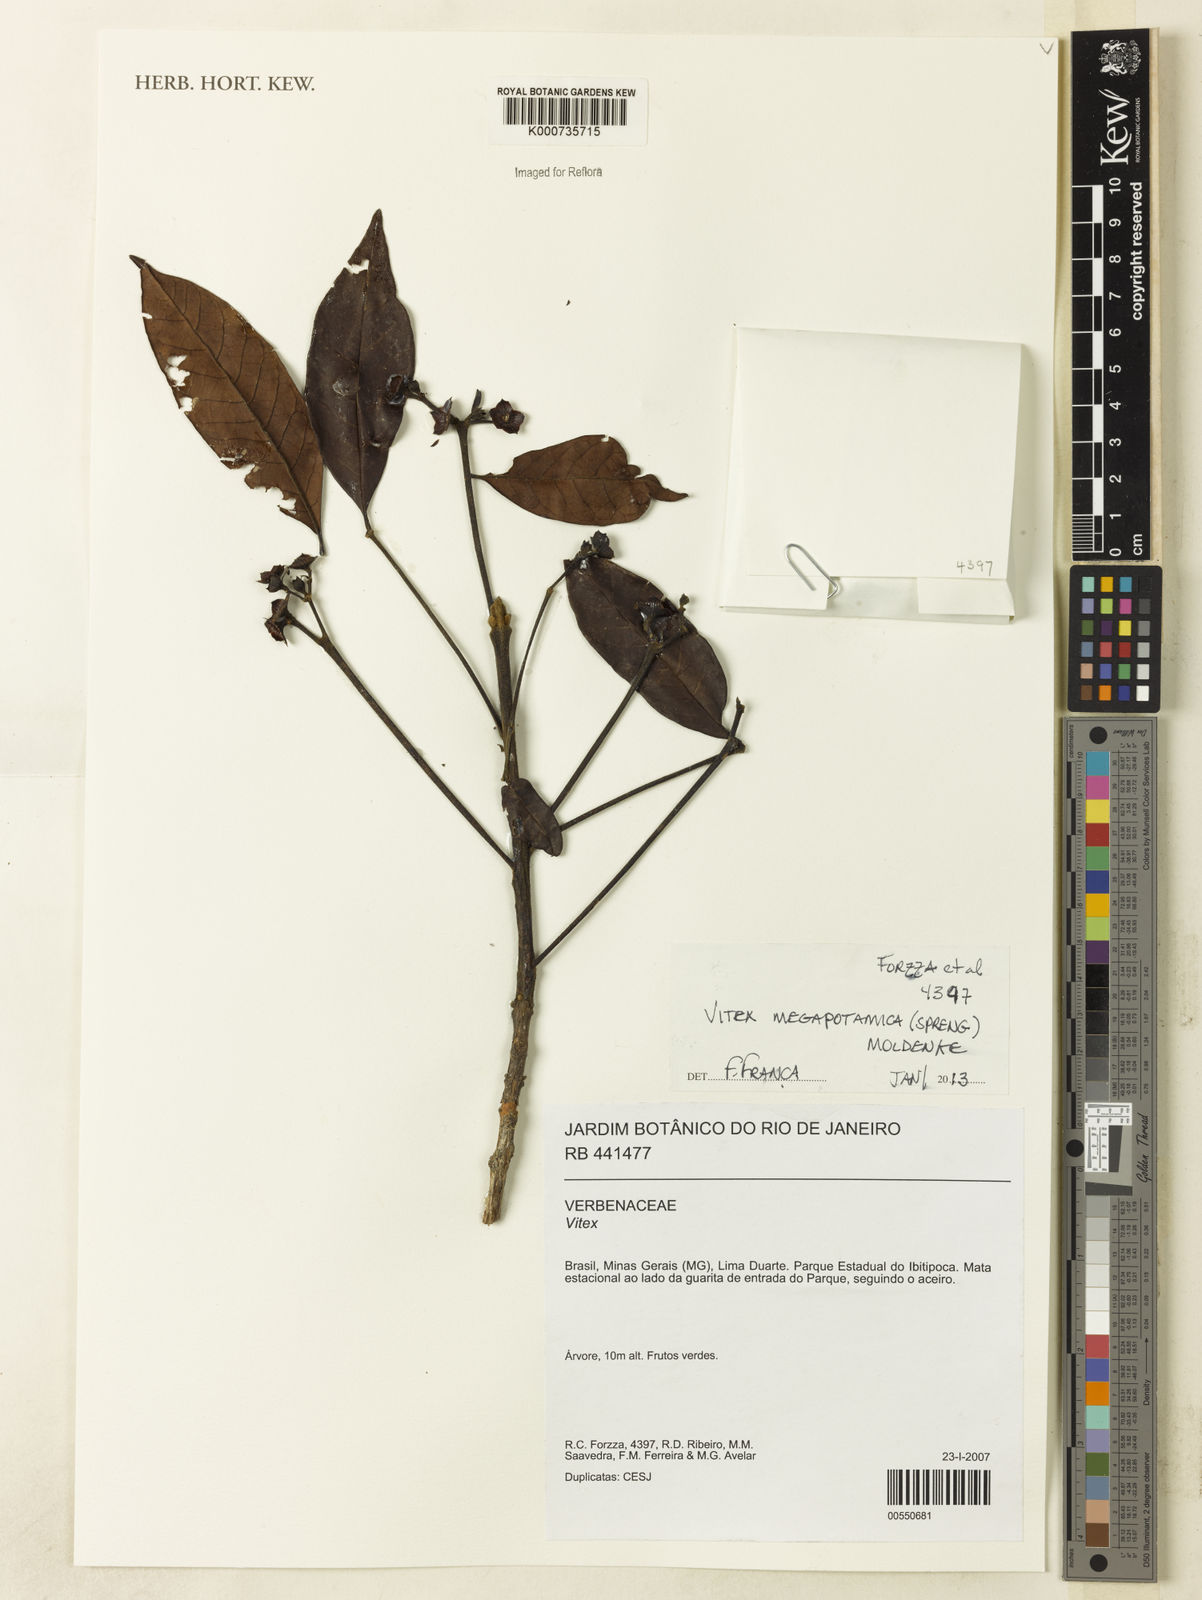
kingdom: Plantae
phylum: Tracheophyta
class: Magnoliopsida
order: Lamiales
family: Lamiaceae
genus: Vitex
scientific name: Vitex megapotamica
